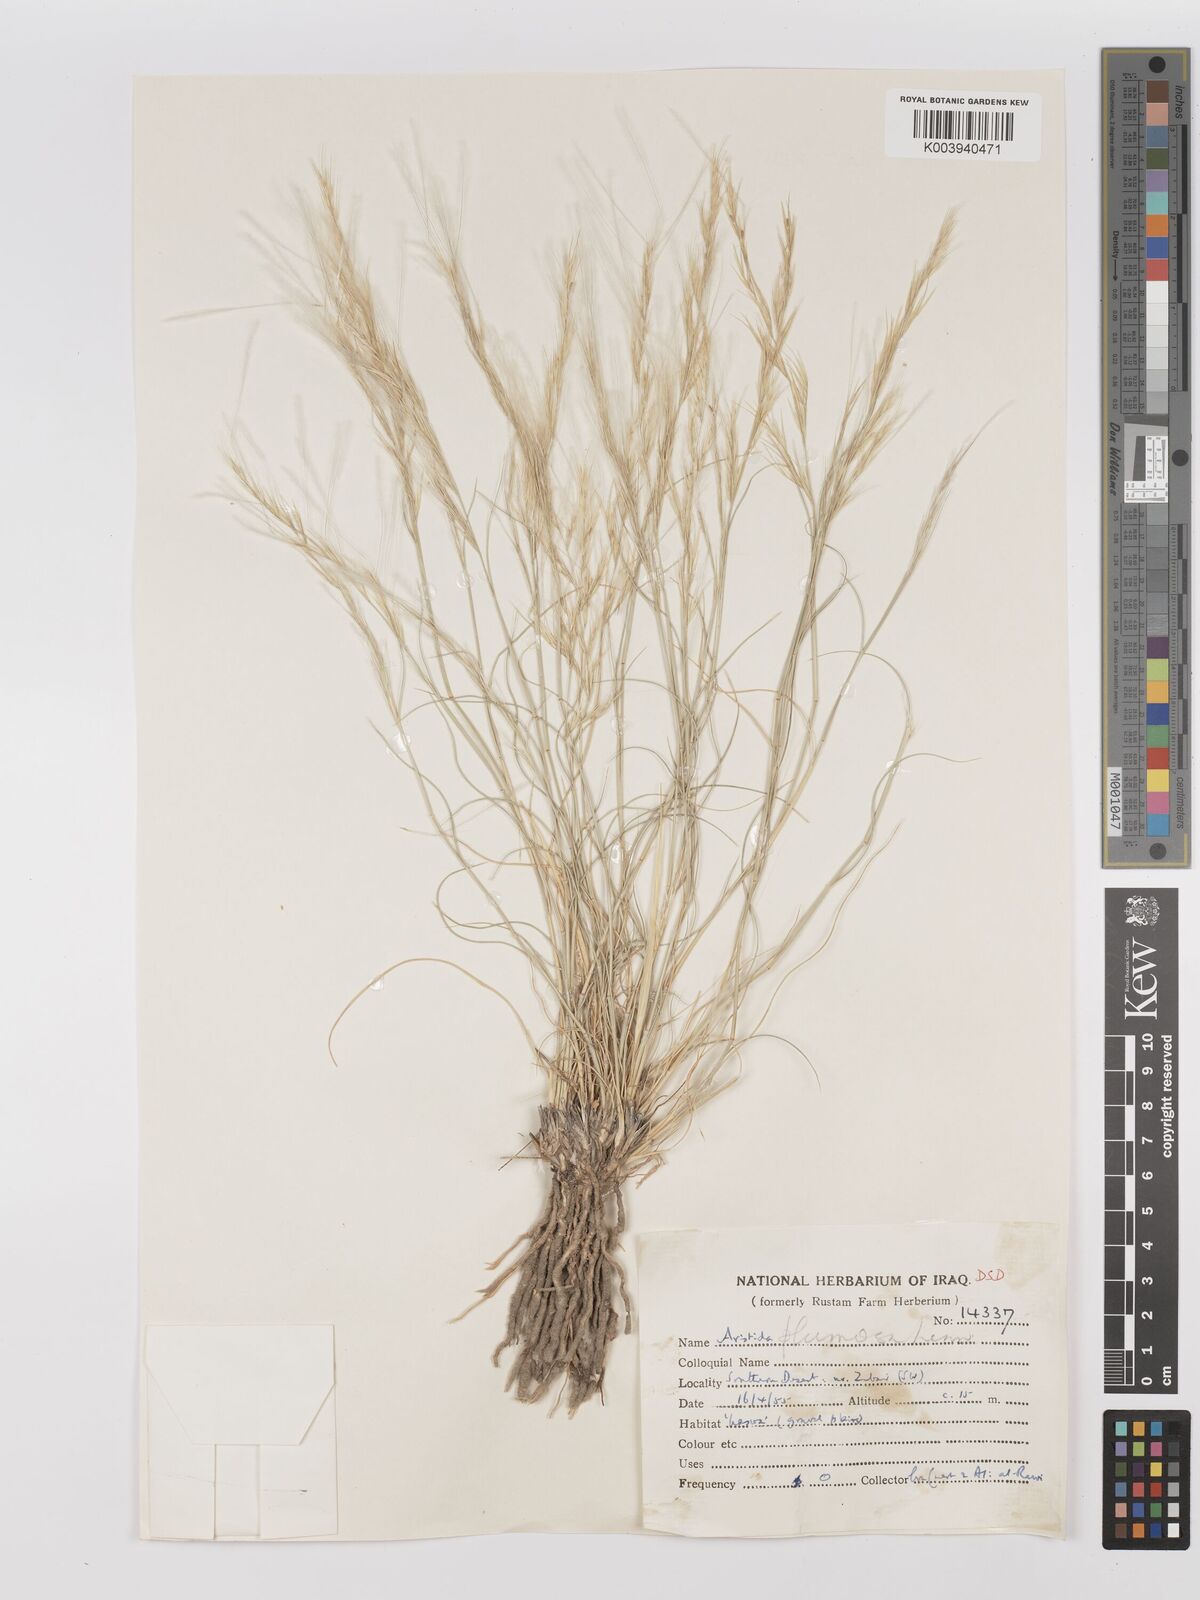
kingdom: Plantae
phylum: Tracheophyta
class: Liliopsida
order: Poales
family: Poaceae
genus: Stipagrostis
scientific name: Stipagrostis plumosa
